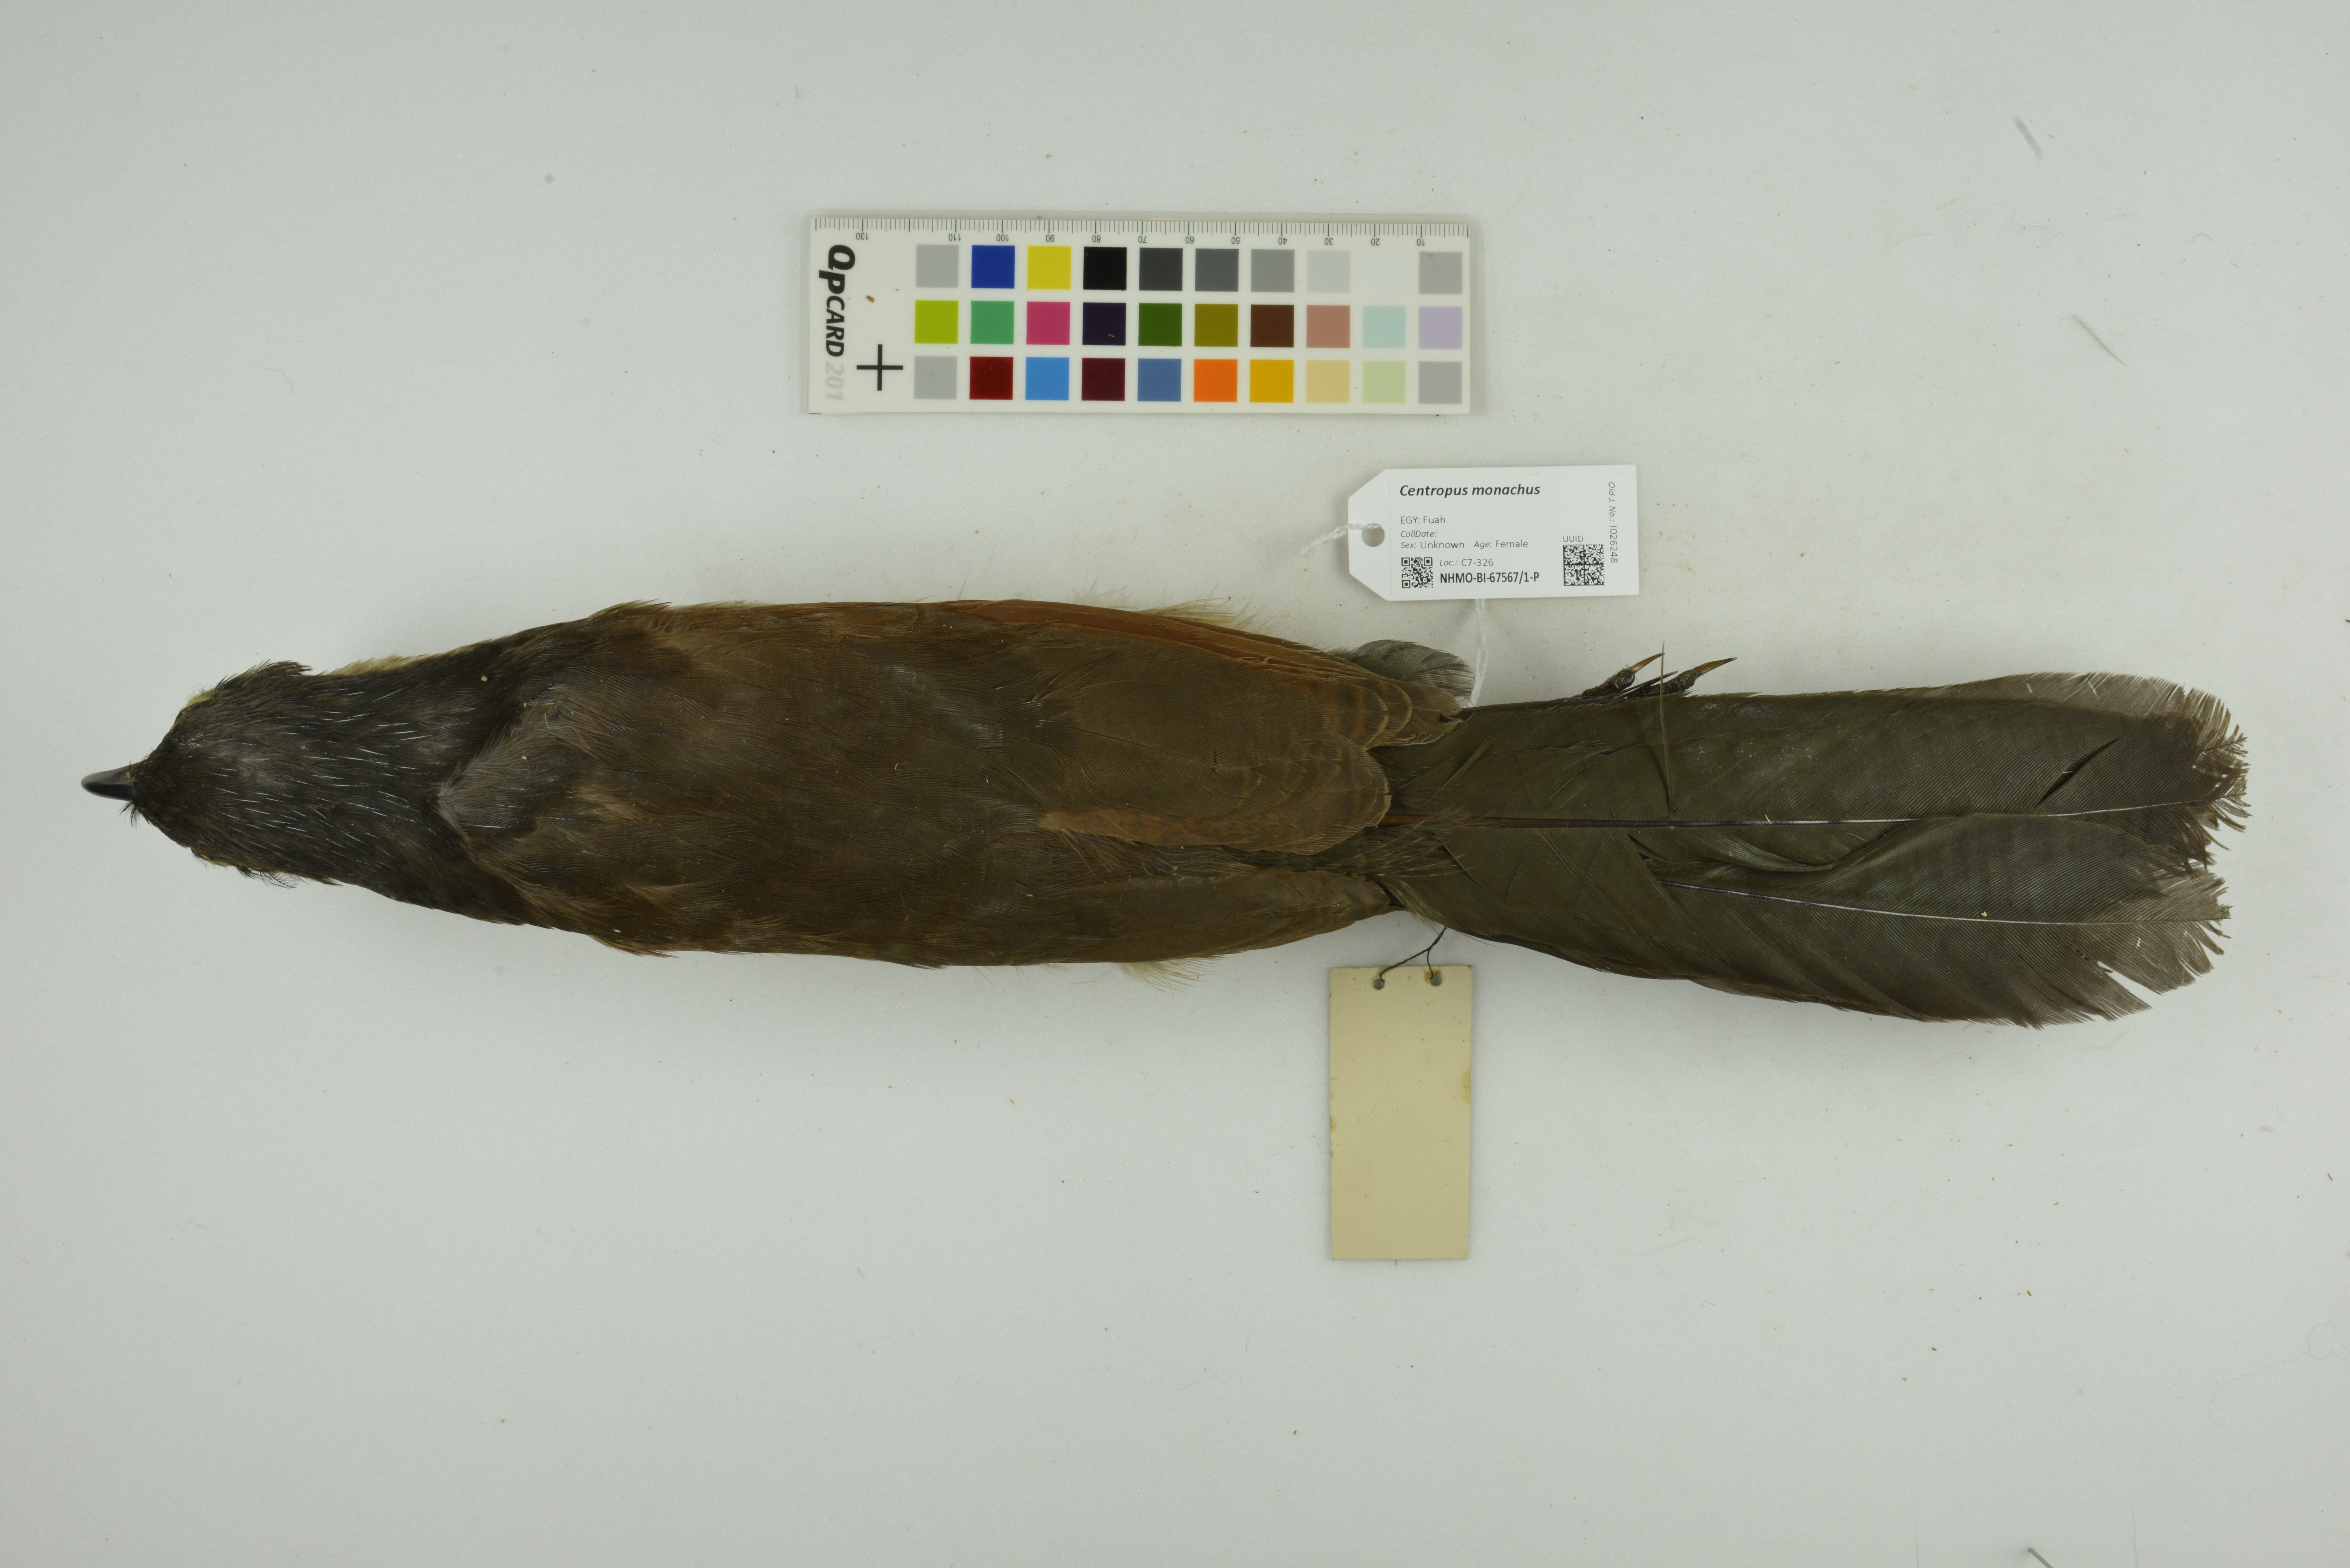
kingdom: Animalia
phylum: Chordata
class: Aves
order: Cuculiformes
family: Cuculidae
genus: Centropus
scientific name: Centropus monachus
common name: Blue-headed coucal
